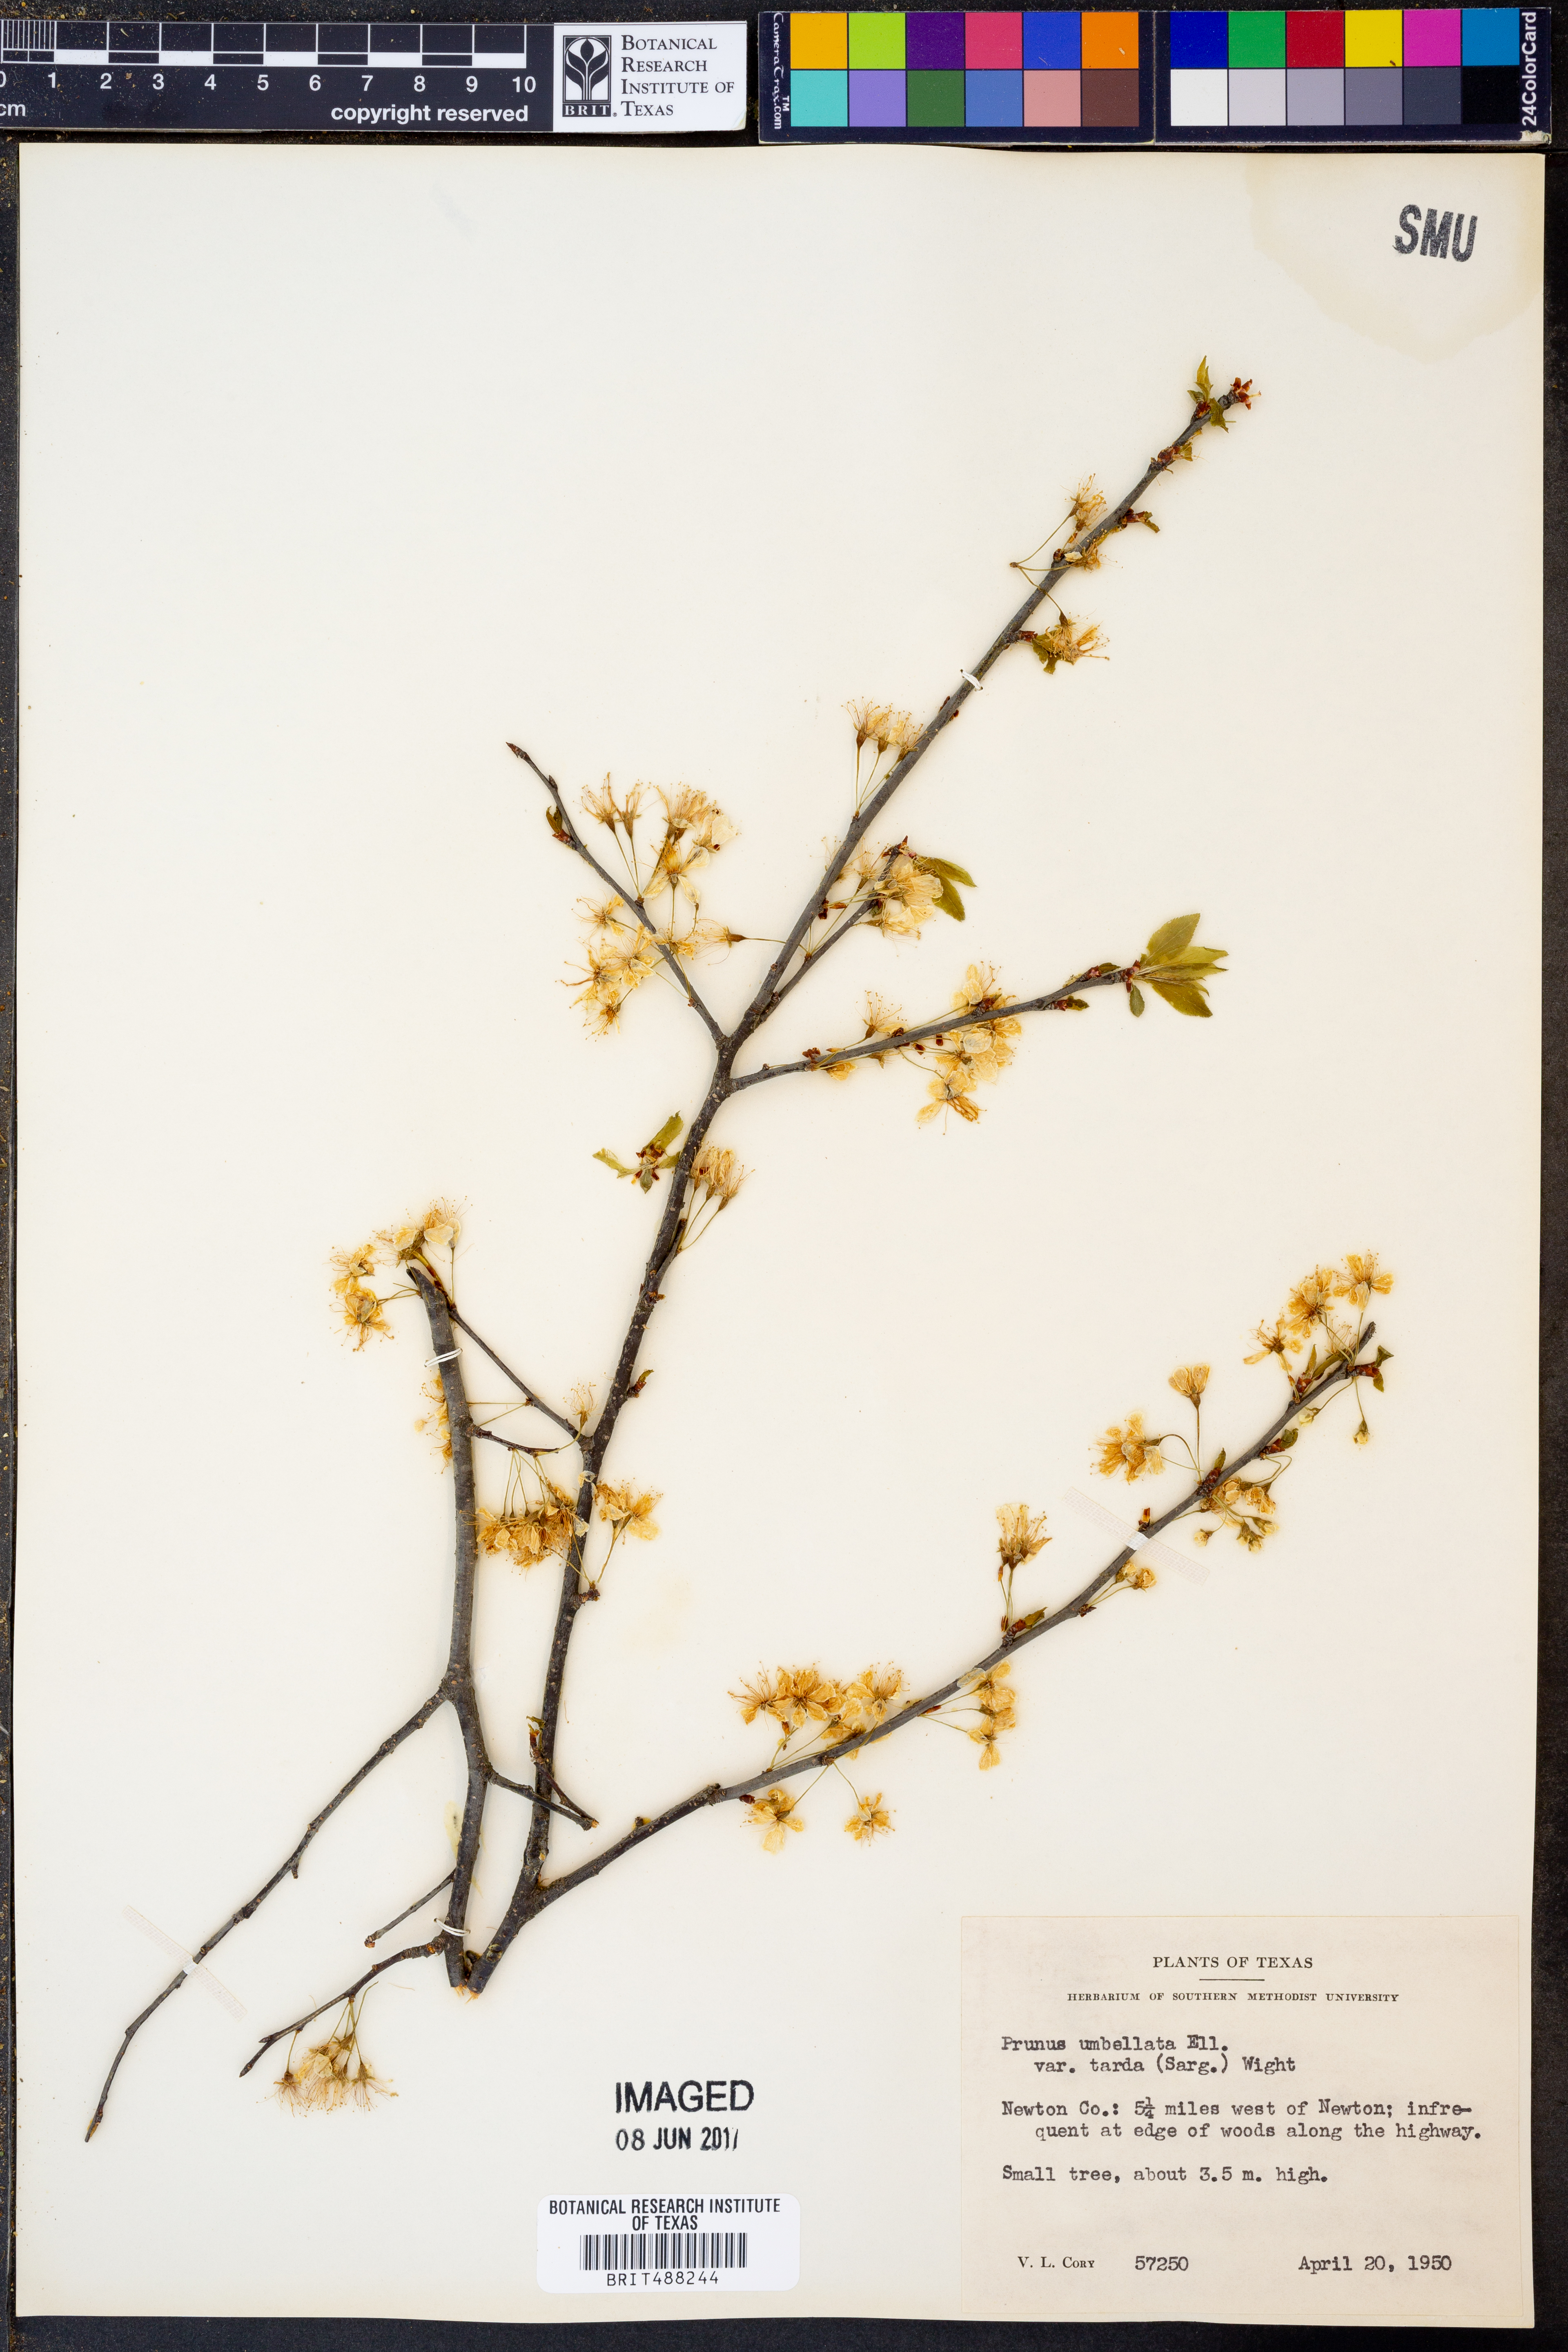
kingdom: Plantae
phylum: Tracheophyta
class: Magnoliopsida
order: Rosales
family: Rosaceae
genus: Prunus
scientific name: Prunus umbellata
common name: Allegheny plum
